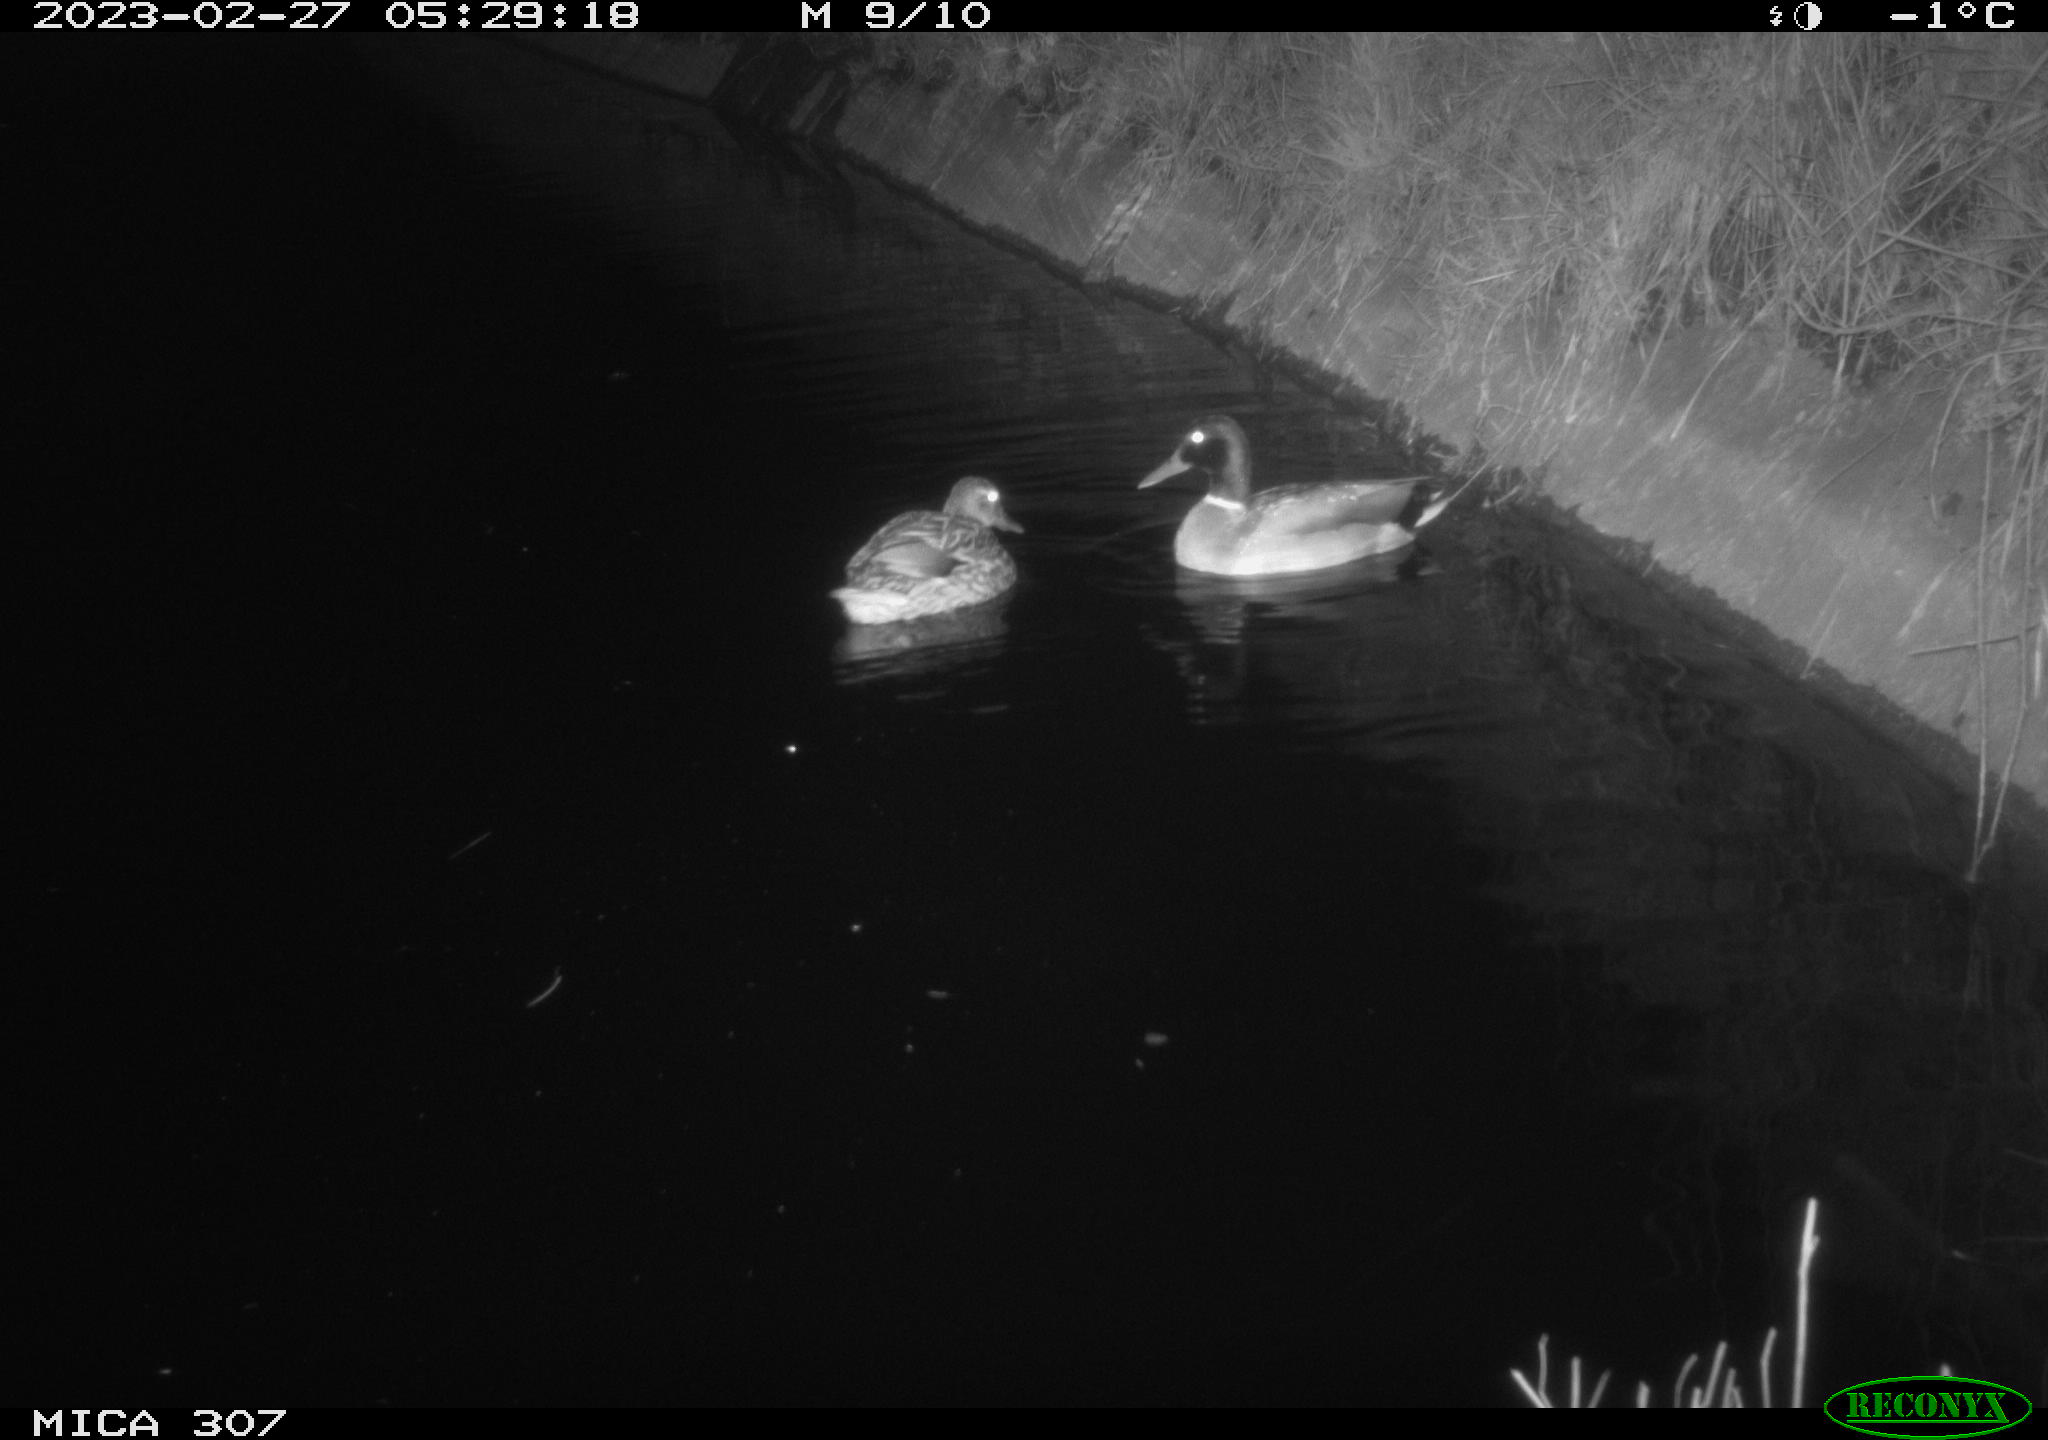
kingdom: Animalia
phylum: Chordata
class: Aves
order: Anseriformes
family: Anatidae
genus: Anas
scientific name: Anas
